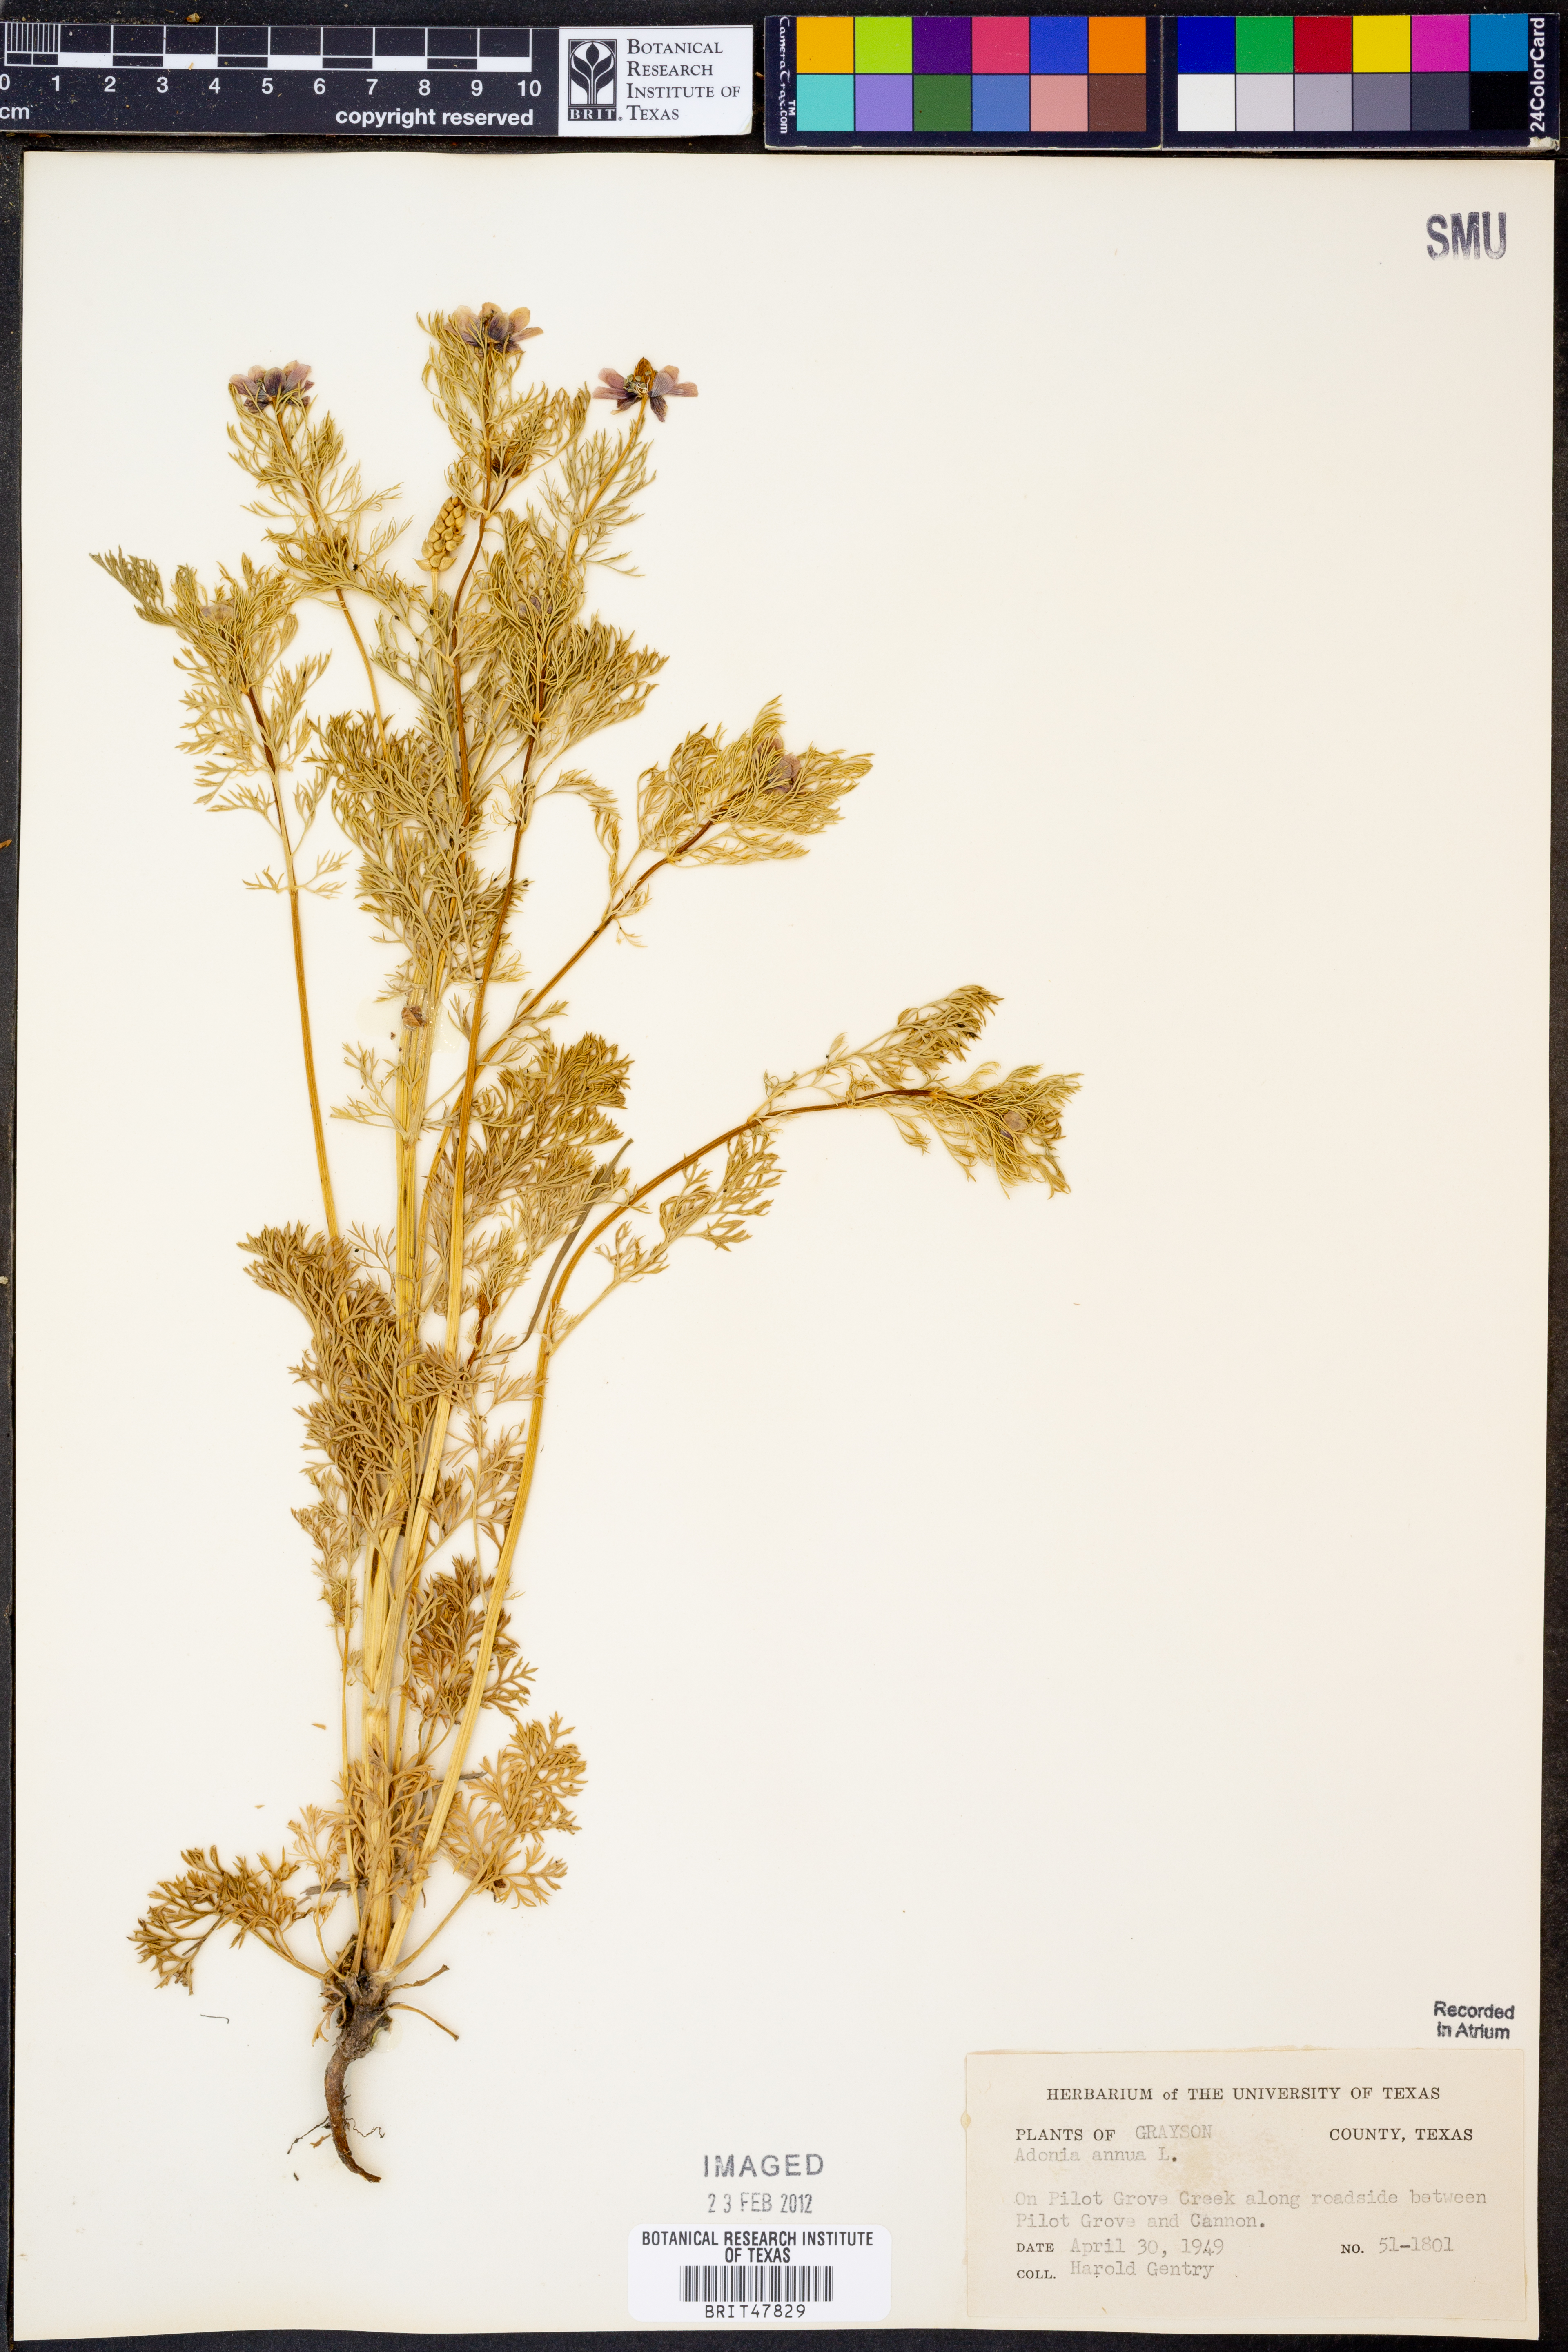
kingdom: Plantae
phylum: Tracheophyta
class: Magnoliopsida
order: Ranunculales
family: Ranunculaceae
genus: Adonis
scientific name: Adonis annua
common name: Pheasant's-eye
